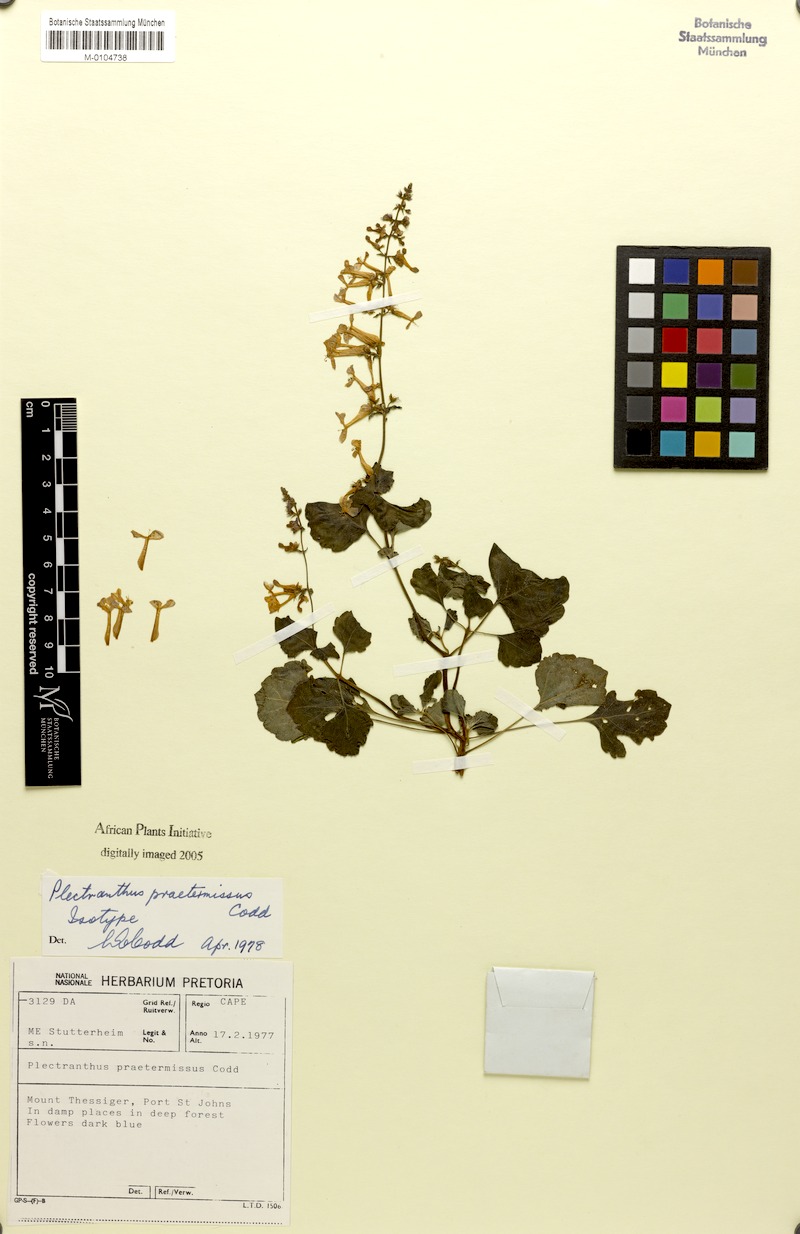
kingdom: Plantae
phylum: Tracheophyta
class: Magnoliopsida
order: Lamiales
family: Lamiaceae
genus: Plectranthus
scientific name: Plectranthus praetermissus
